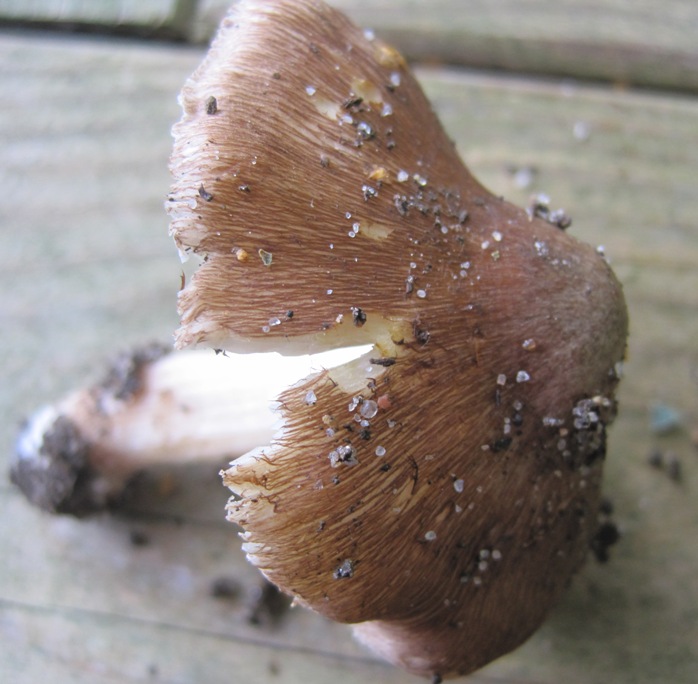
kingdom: Fungi
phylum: Basidiomycota
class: Agaricomycetes
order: Agaricales
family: Inocybaceae
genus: Inosperma
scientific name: Inosperma
